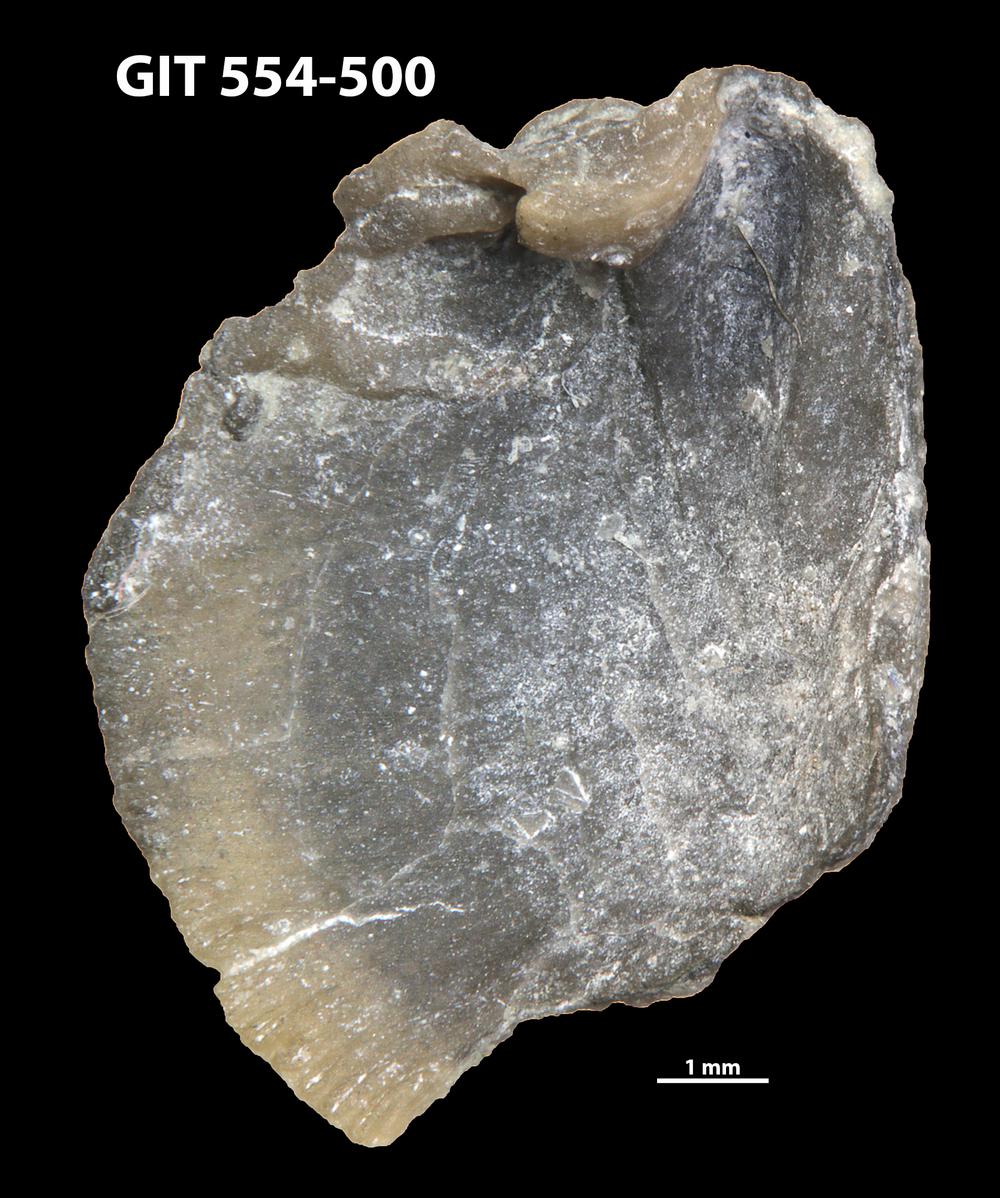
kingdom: Animalia
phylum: Brachiopoda
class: Rhynchonellata
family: Dalmanellidae
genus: Isorthis
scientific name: Isorthis parvulus
